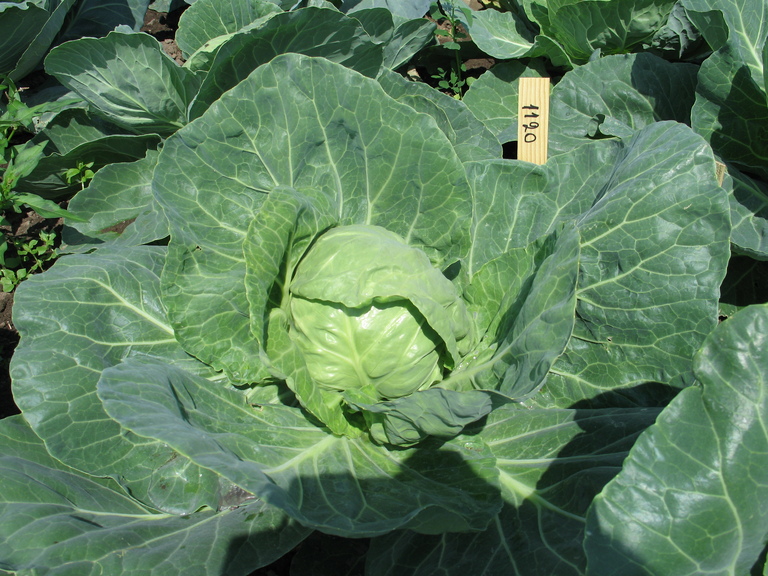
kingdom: Plantae
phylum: Tracheophyta
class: Magnoliopsida
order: Brassicales
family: Brassicaceae
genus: Brassica
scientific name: Brassica oleracea
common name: Cabbage
